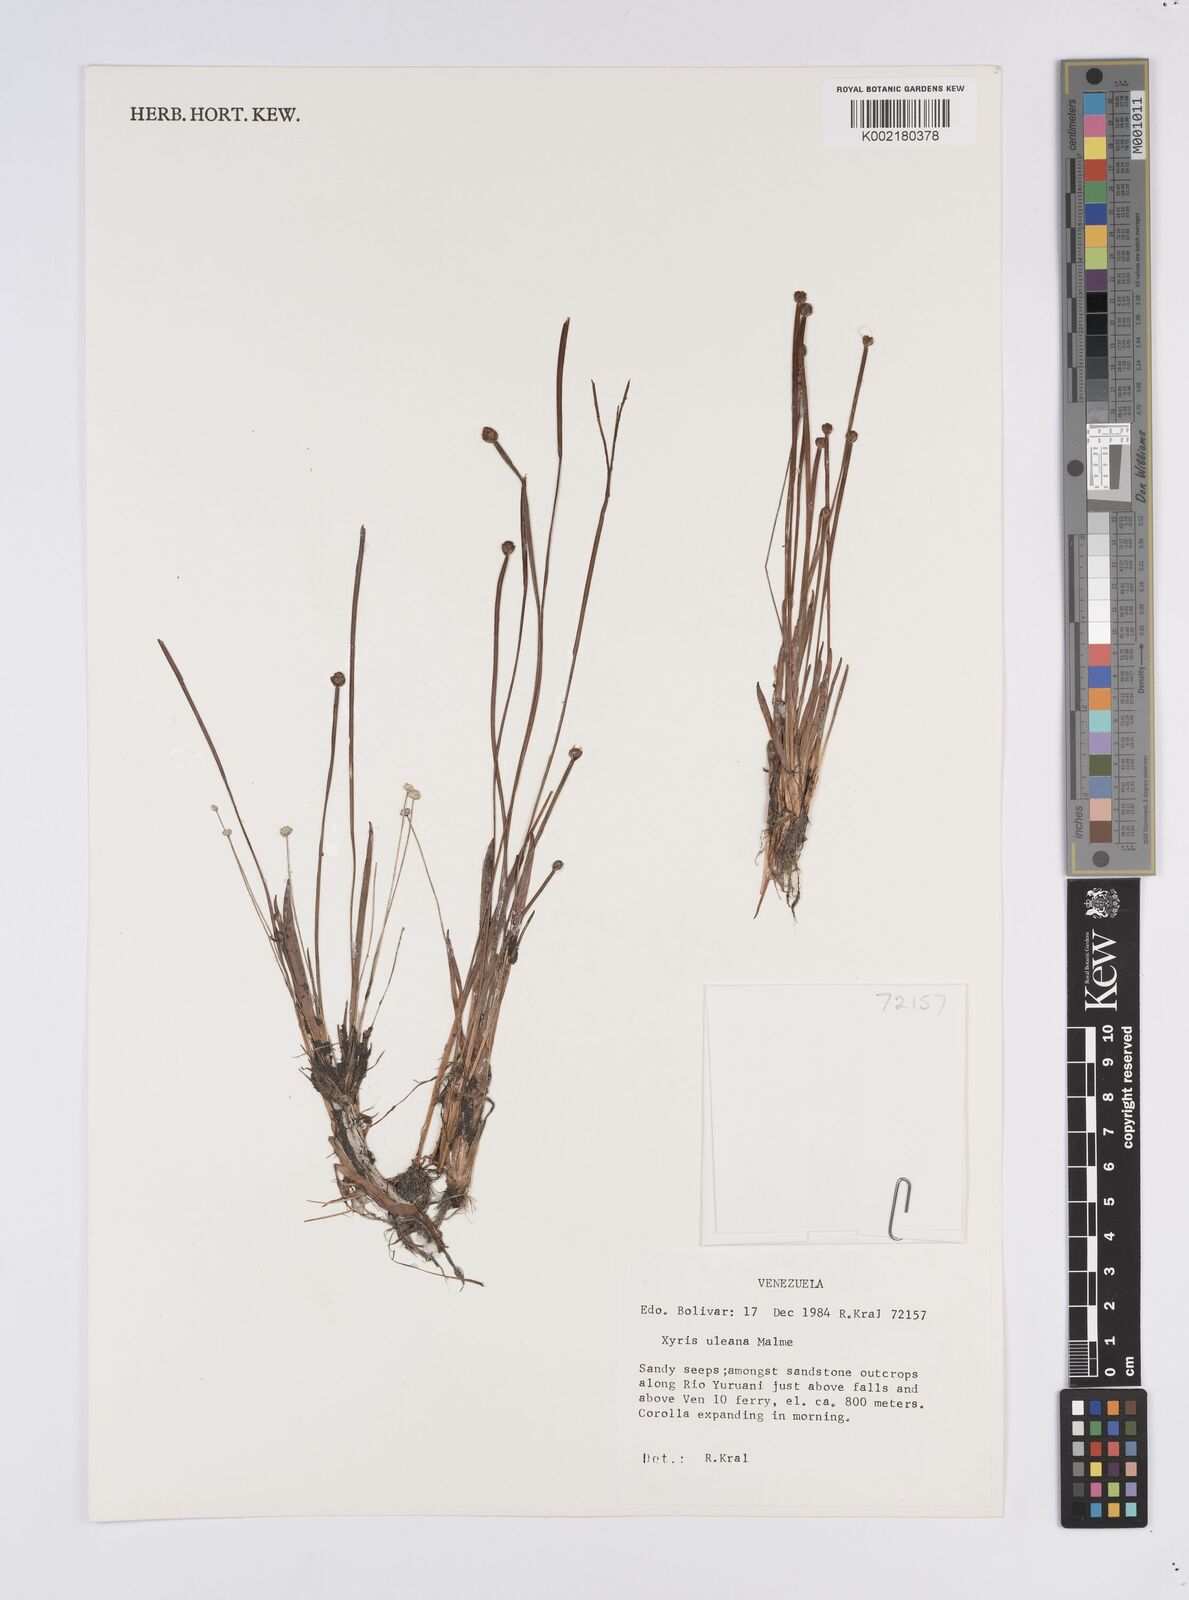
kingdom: Plantae
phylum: Tracheophyta
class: Liliopsida
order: Poales
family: Xyridaceae
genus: Xyris
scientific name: Xyris uleana
